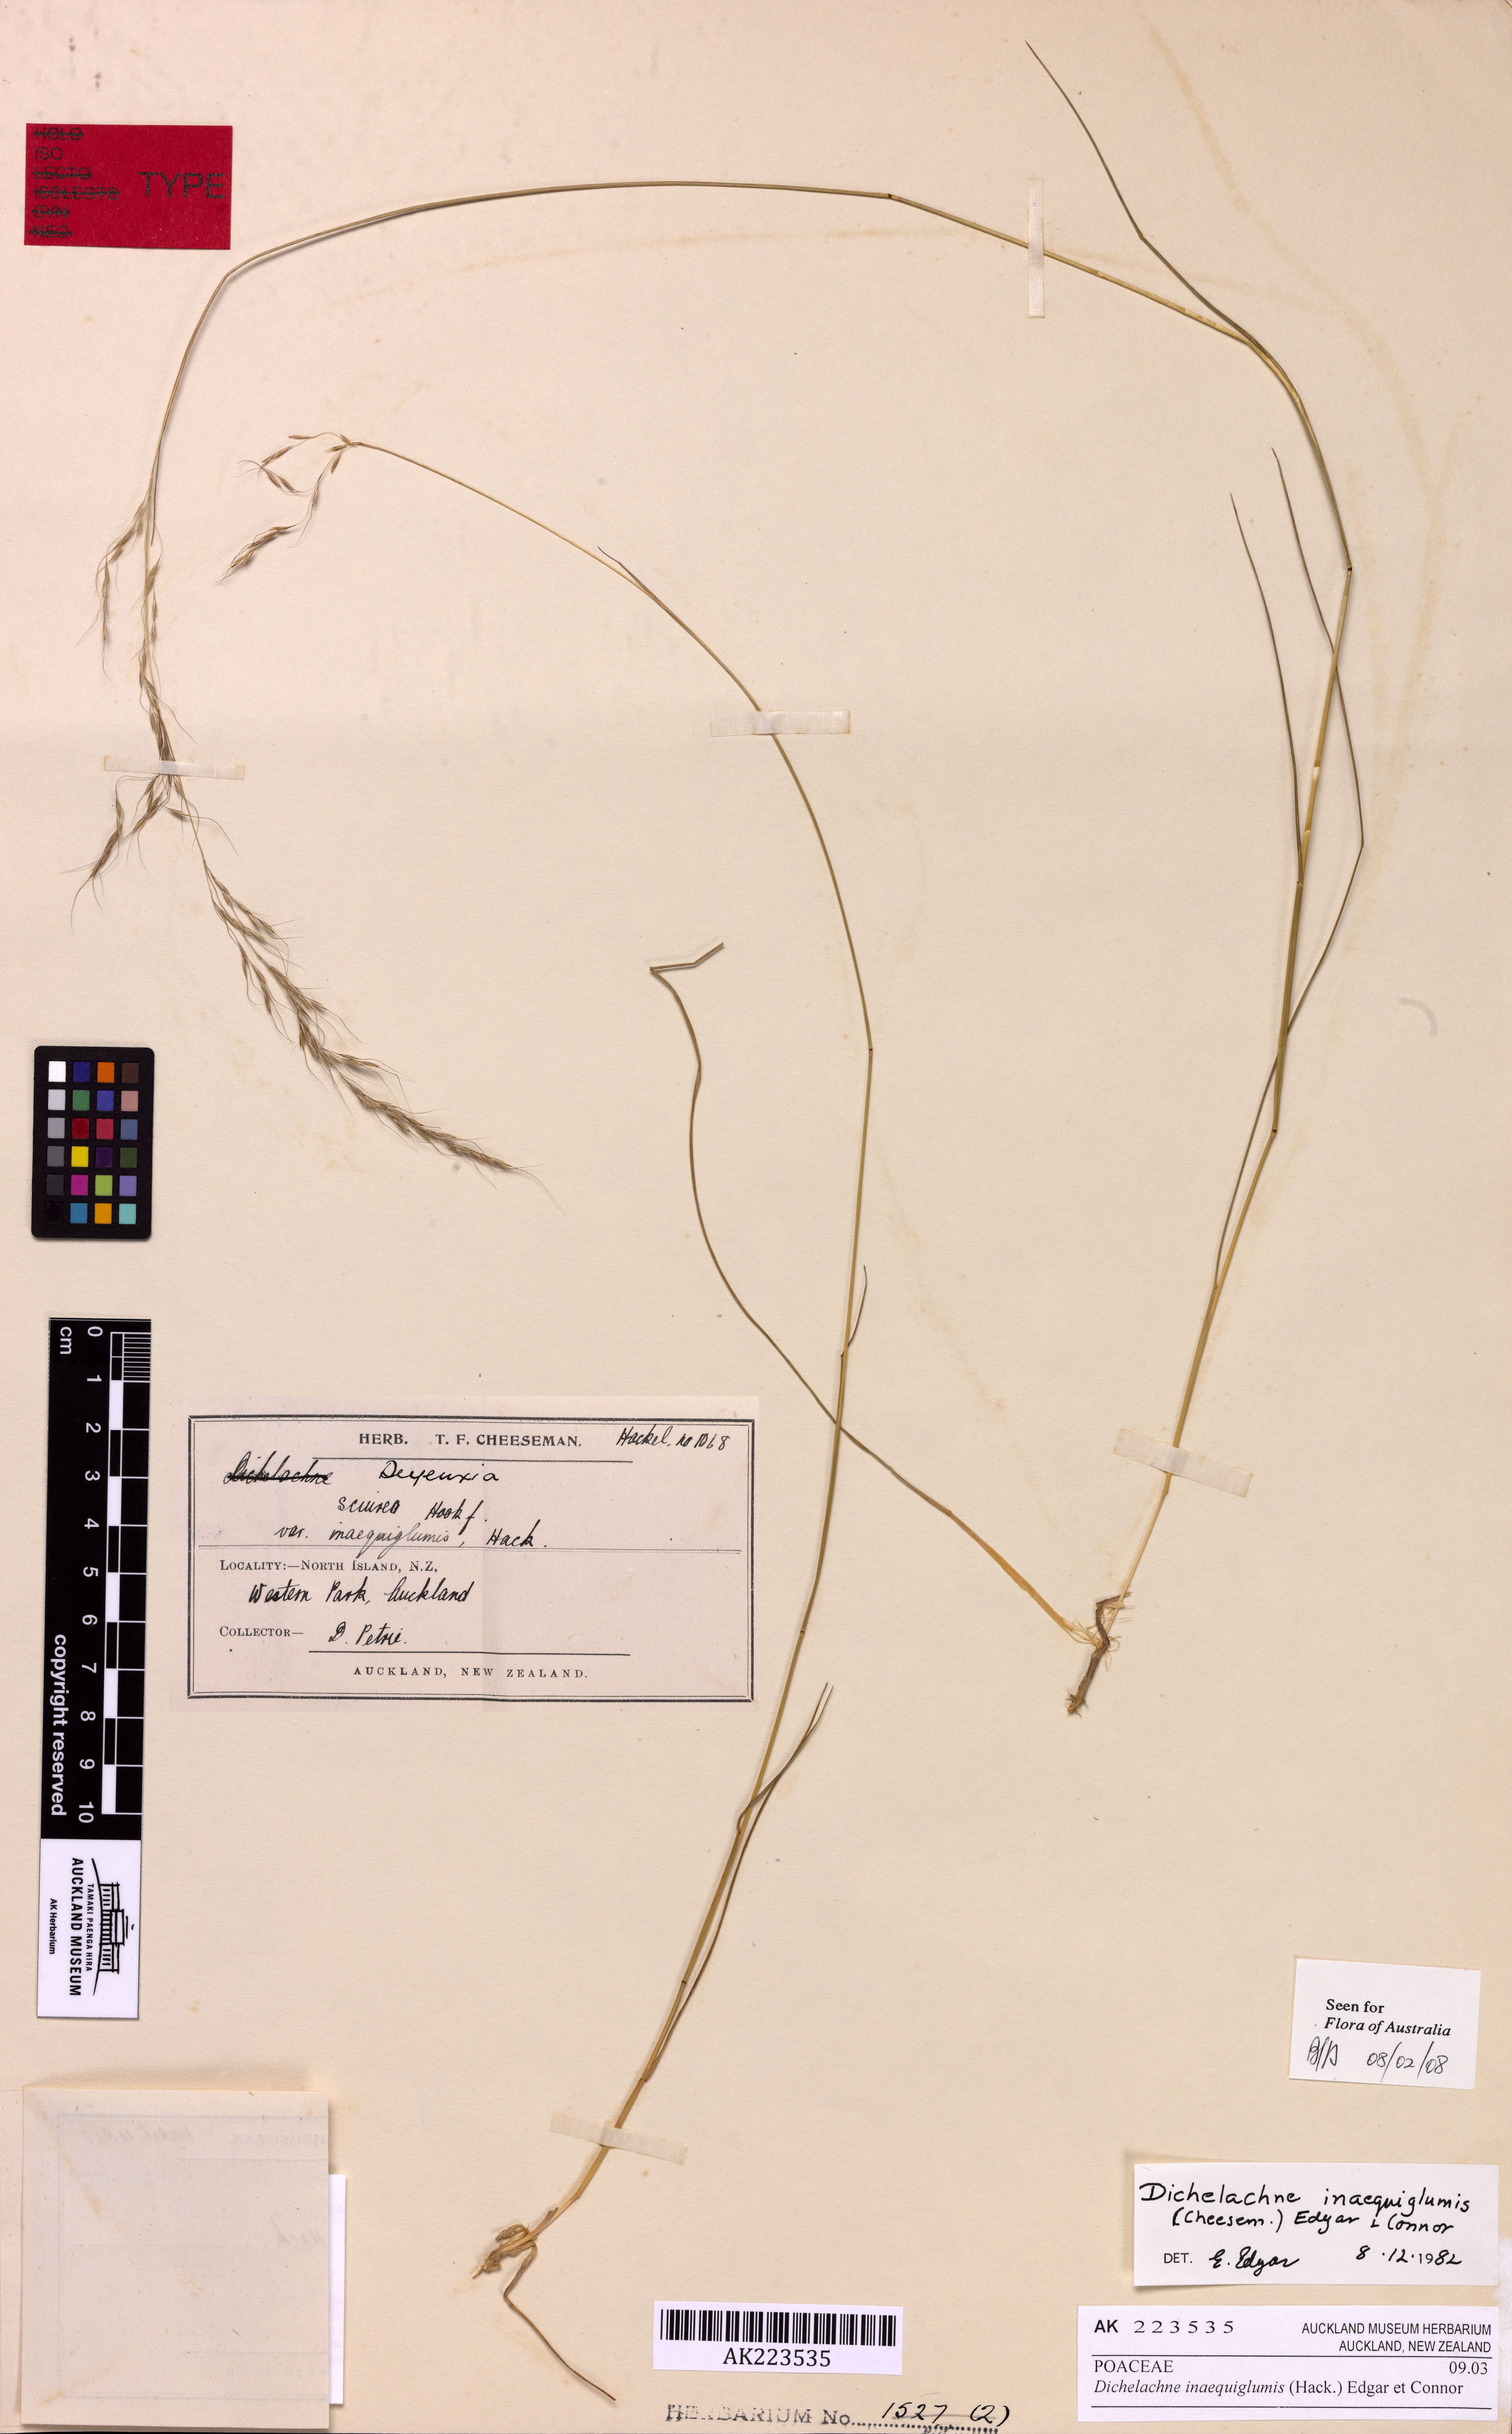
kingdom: Plantae
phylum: Tracheophyta
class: Liliopsida
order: Poales
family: Poaceae
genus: Dichelachne
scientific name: Dichelachne inaequiglumis
